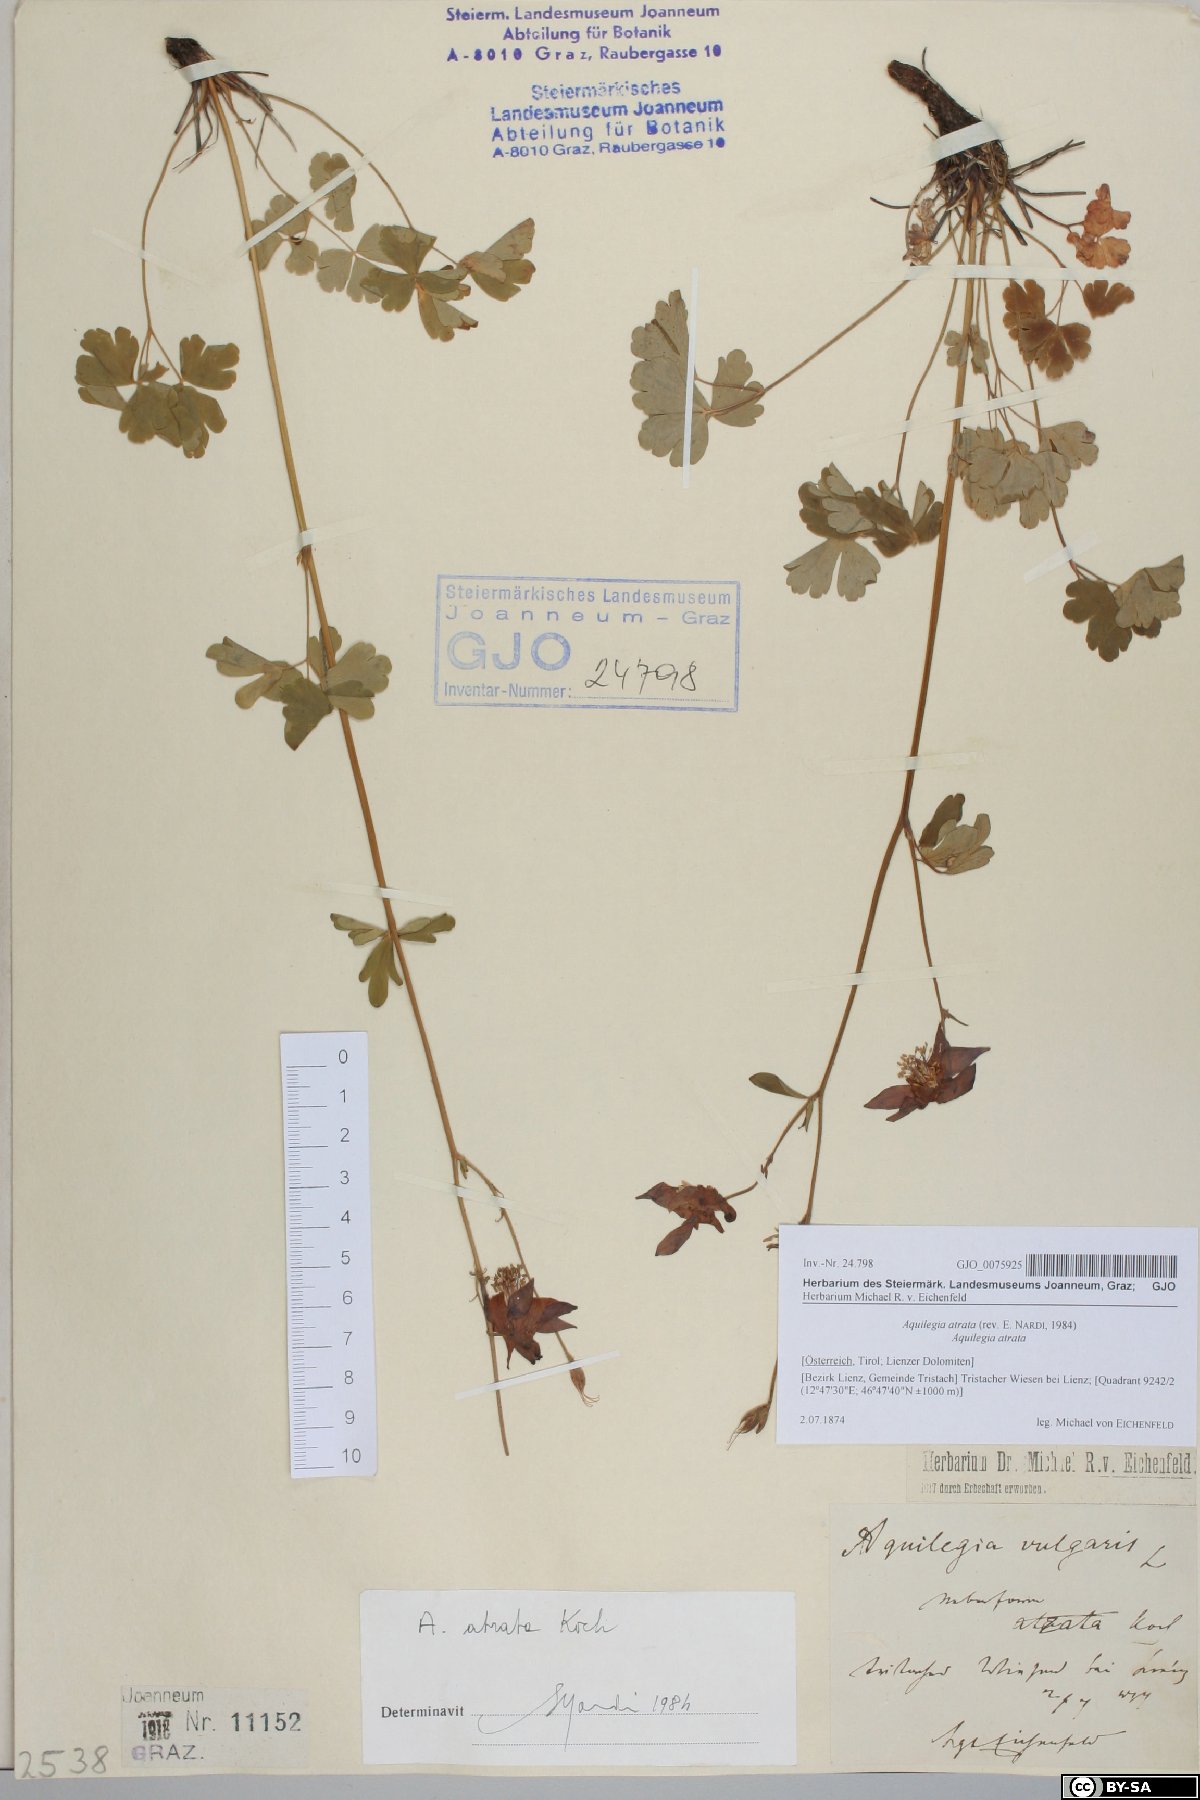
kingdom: Plantae
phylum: Tracheophyta
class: Magnoliopsida
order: Ranunculales
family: Ranunculaceae
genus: Aquilegia
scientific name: Aquilegia atrata
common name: Dark columbine
